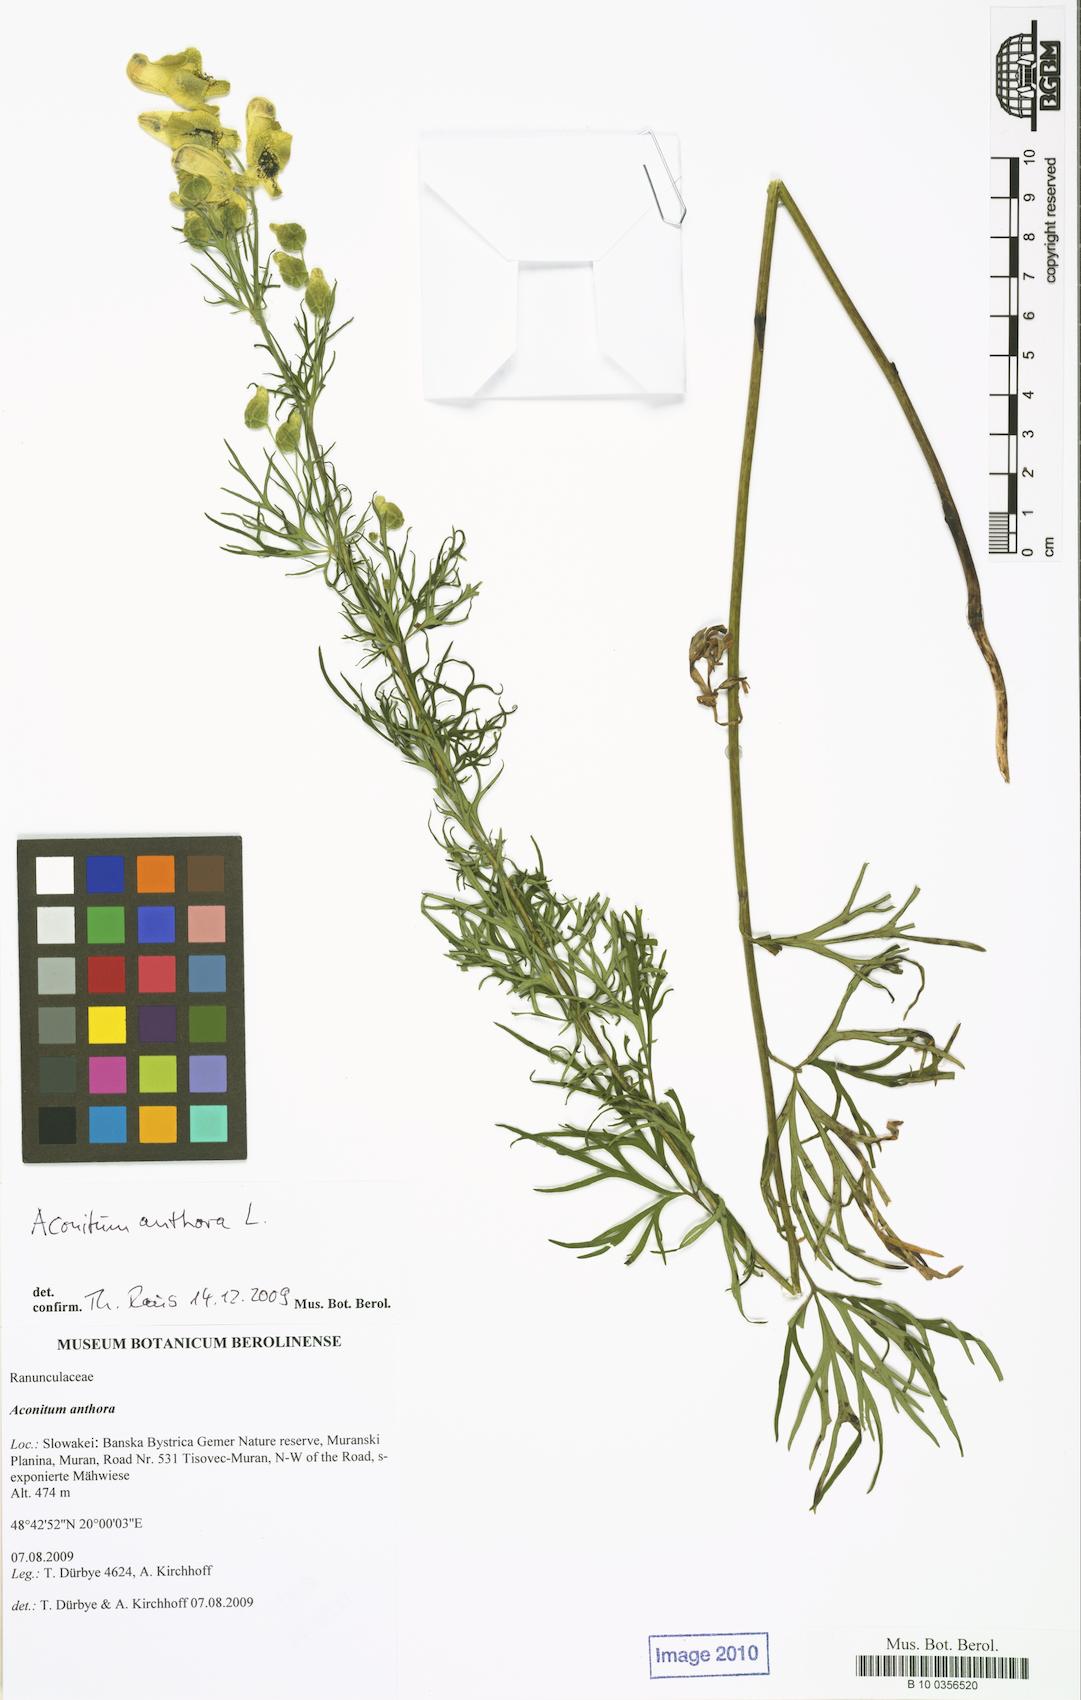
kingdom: Plantae
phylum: Tracheophyta
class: Magnoliopsida
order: Ranunculales
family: Ranunculaceae
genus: Aconitum
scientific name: Aconitum anthora
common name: Yellow monkshood
